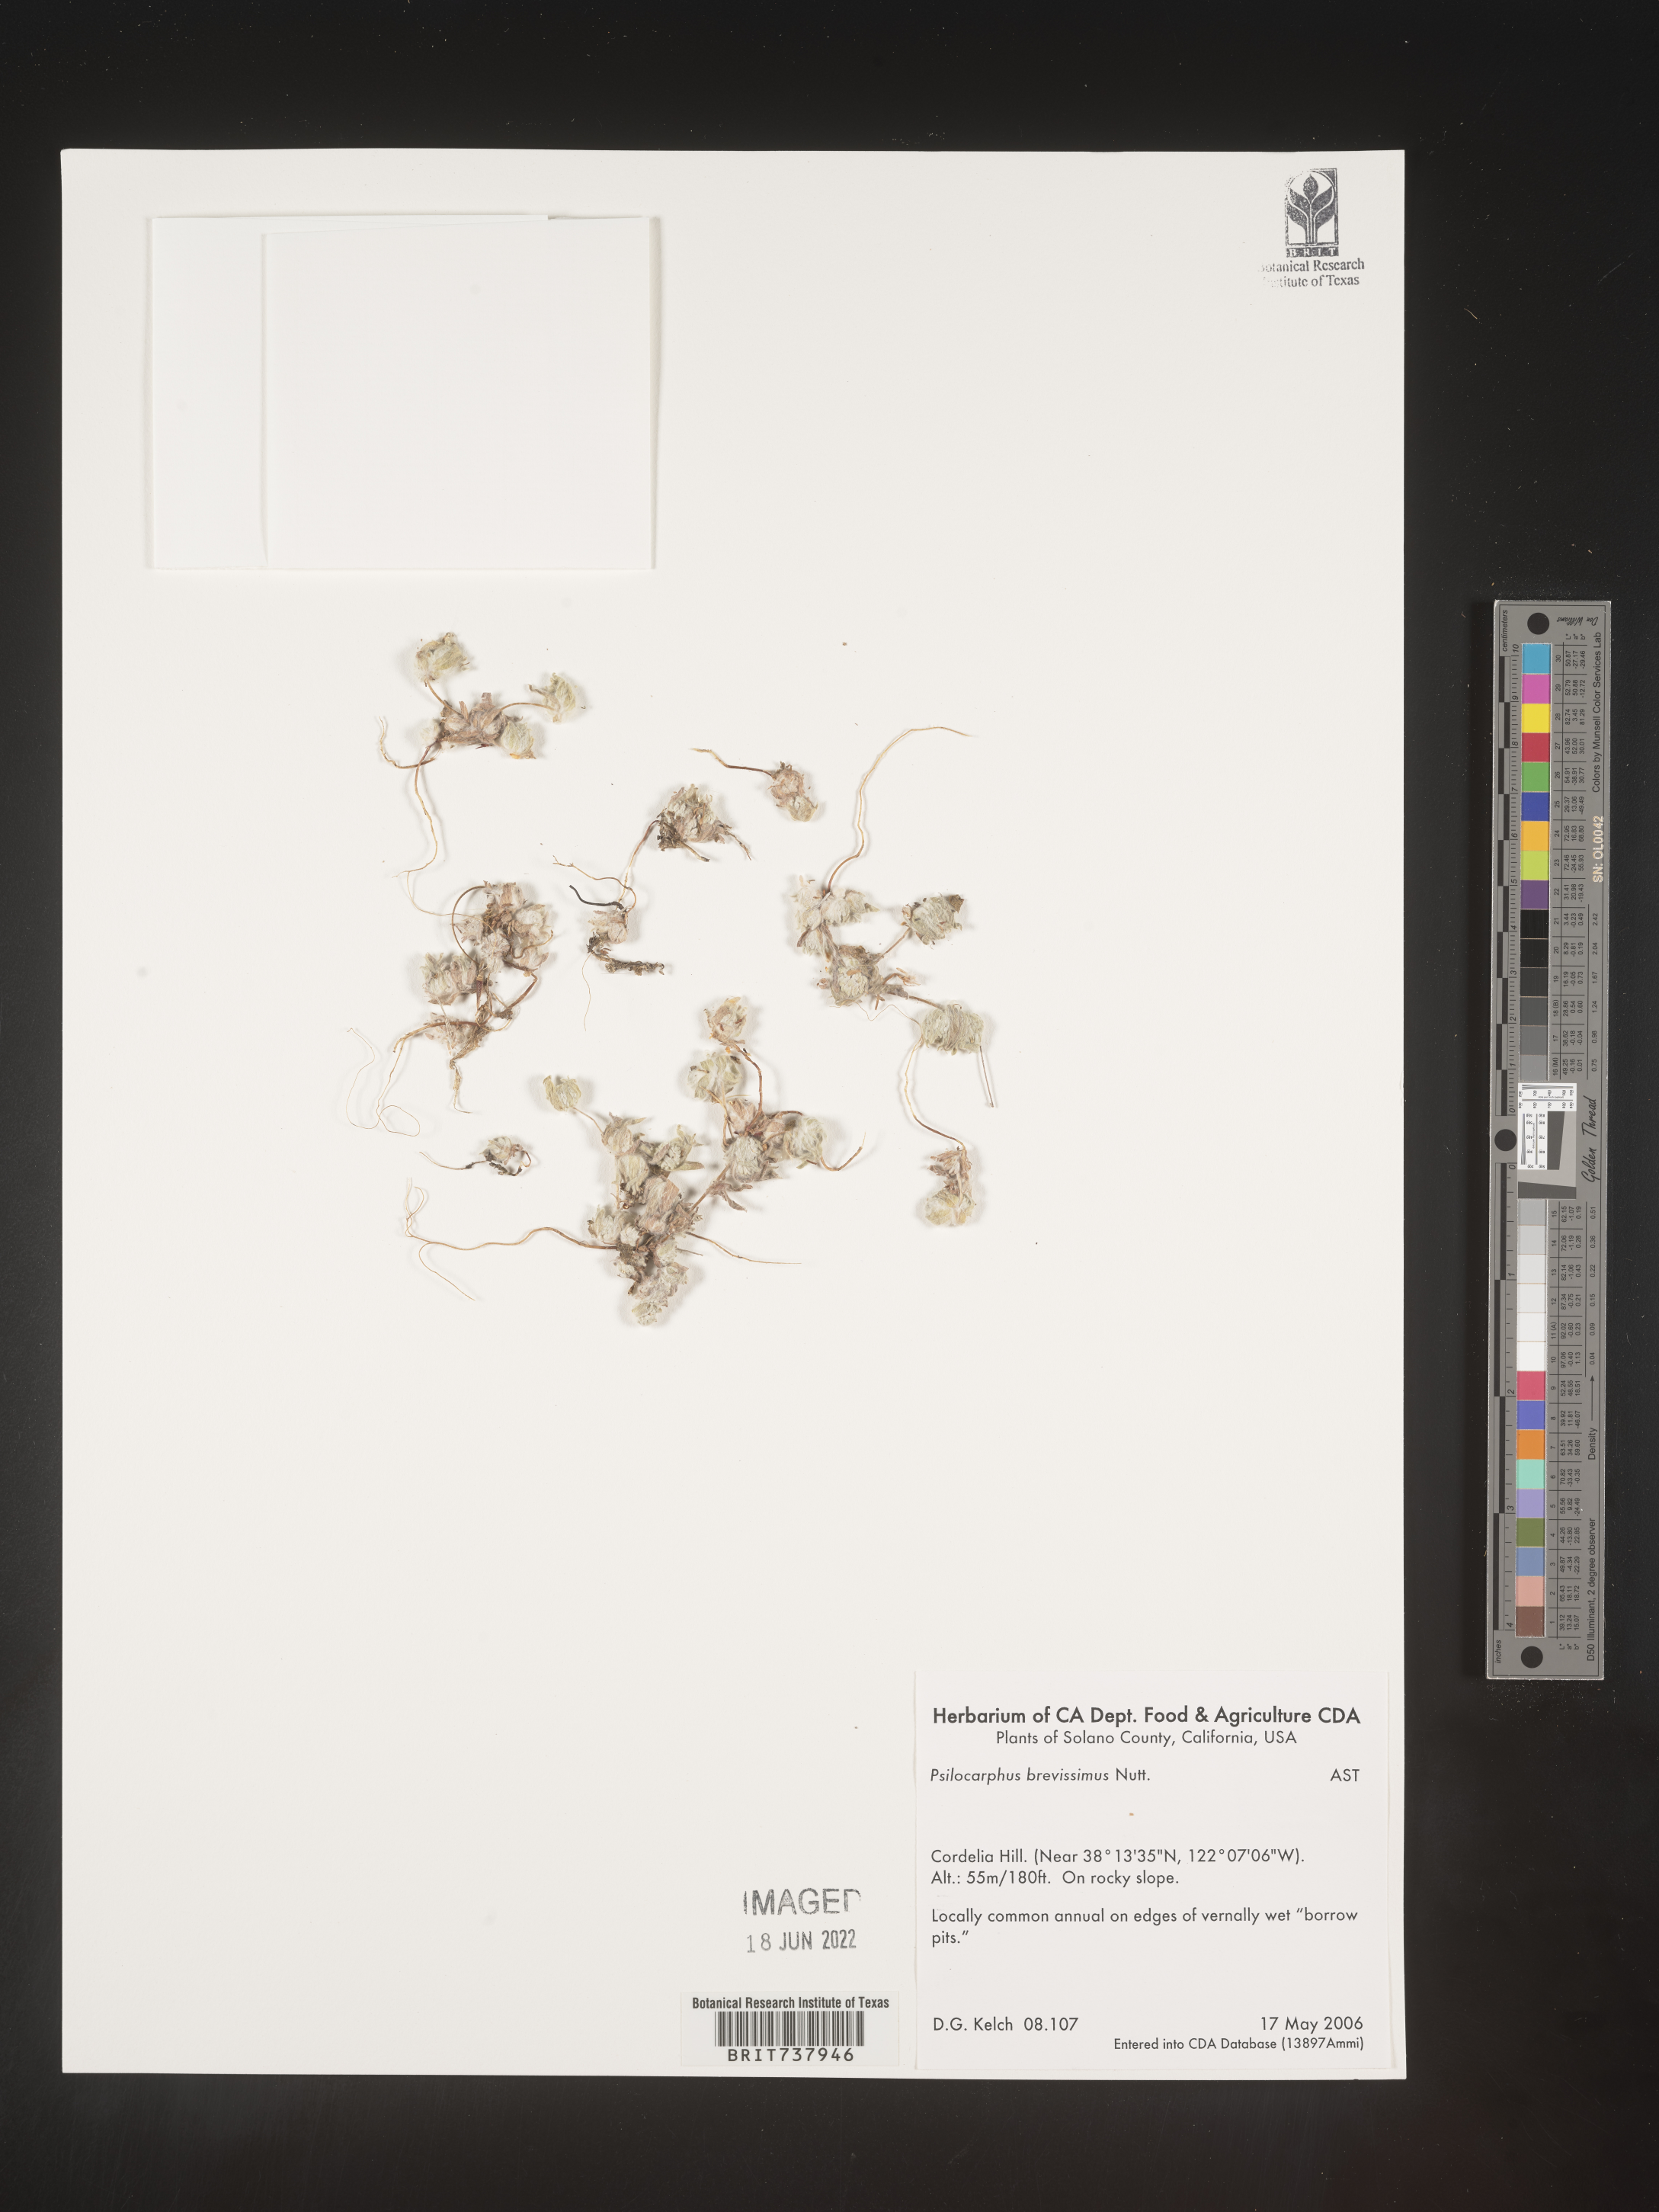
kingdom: Plantae
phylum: Tracheophyta
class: Magnoliopsida
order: Asterales
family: Asteraceae
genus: Psilocarphus
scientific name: Psilocarphus
